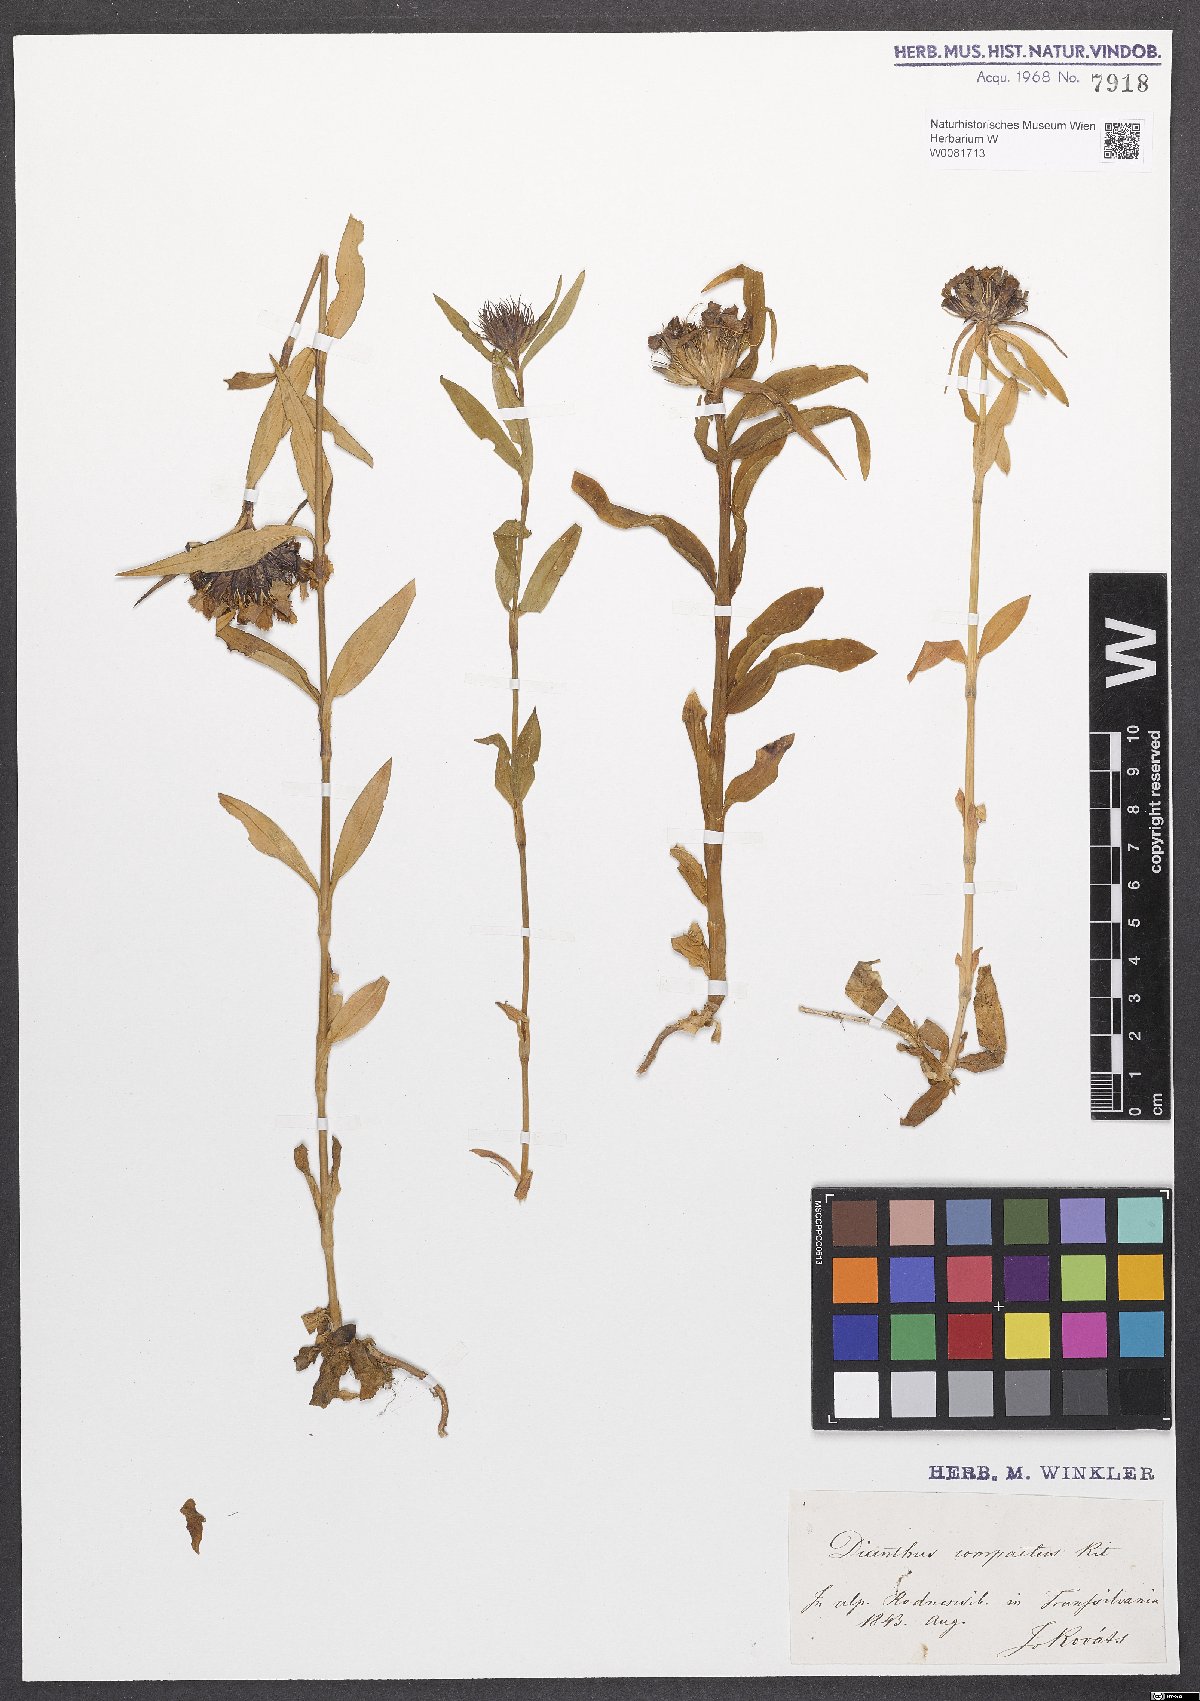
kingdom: Plantae
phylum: Tracheophyta
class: Magnoliopsida
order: Caryophyllales
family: Caryophyllaceae
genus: Dianthus
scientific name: Dianthus barbatus
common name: Sweet-william
